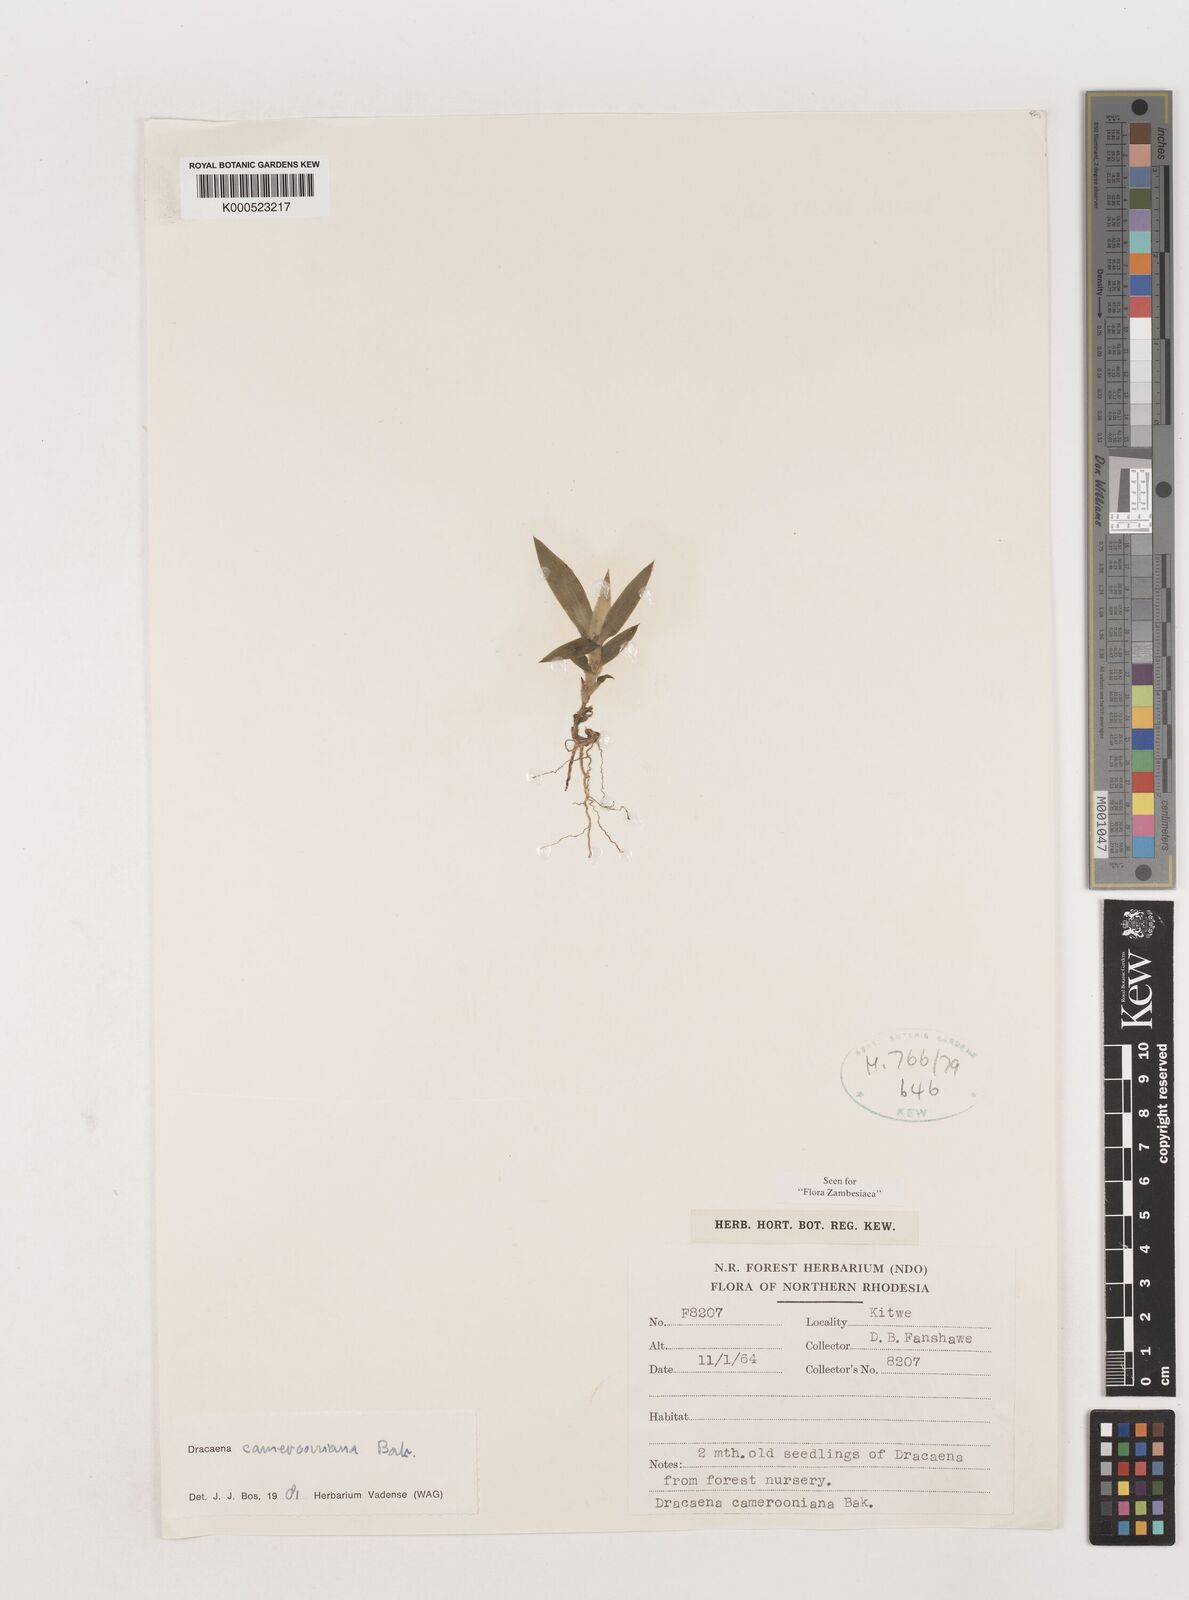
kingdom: Plantae
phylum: Tracheophyta
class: Liliopsida
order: Asparagales
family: Asparagaceae
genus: Dracaena
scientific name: Dracaena camerooniana
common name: Dragon tree
